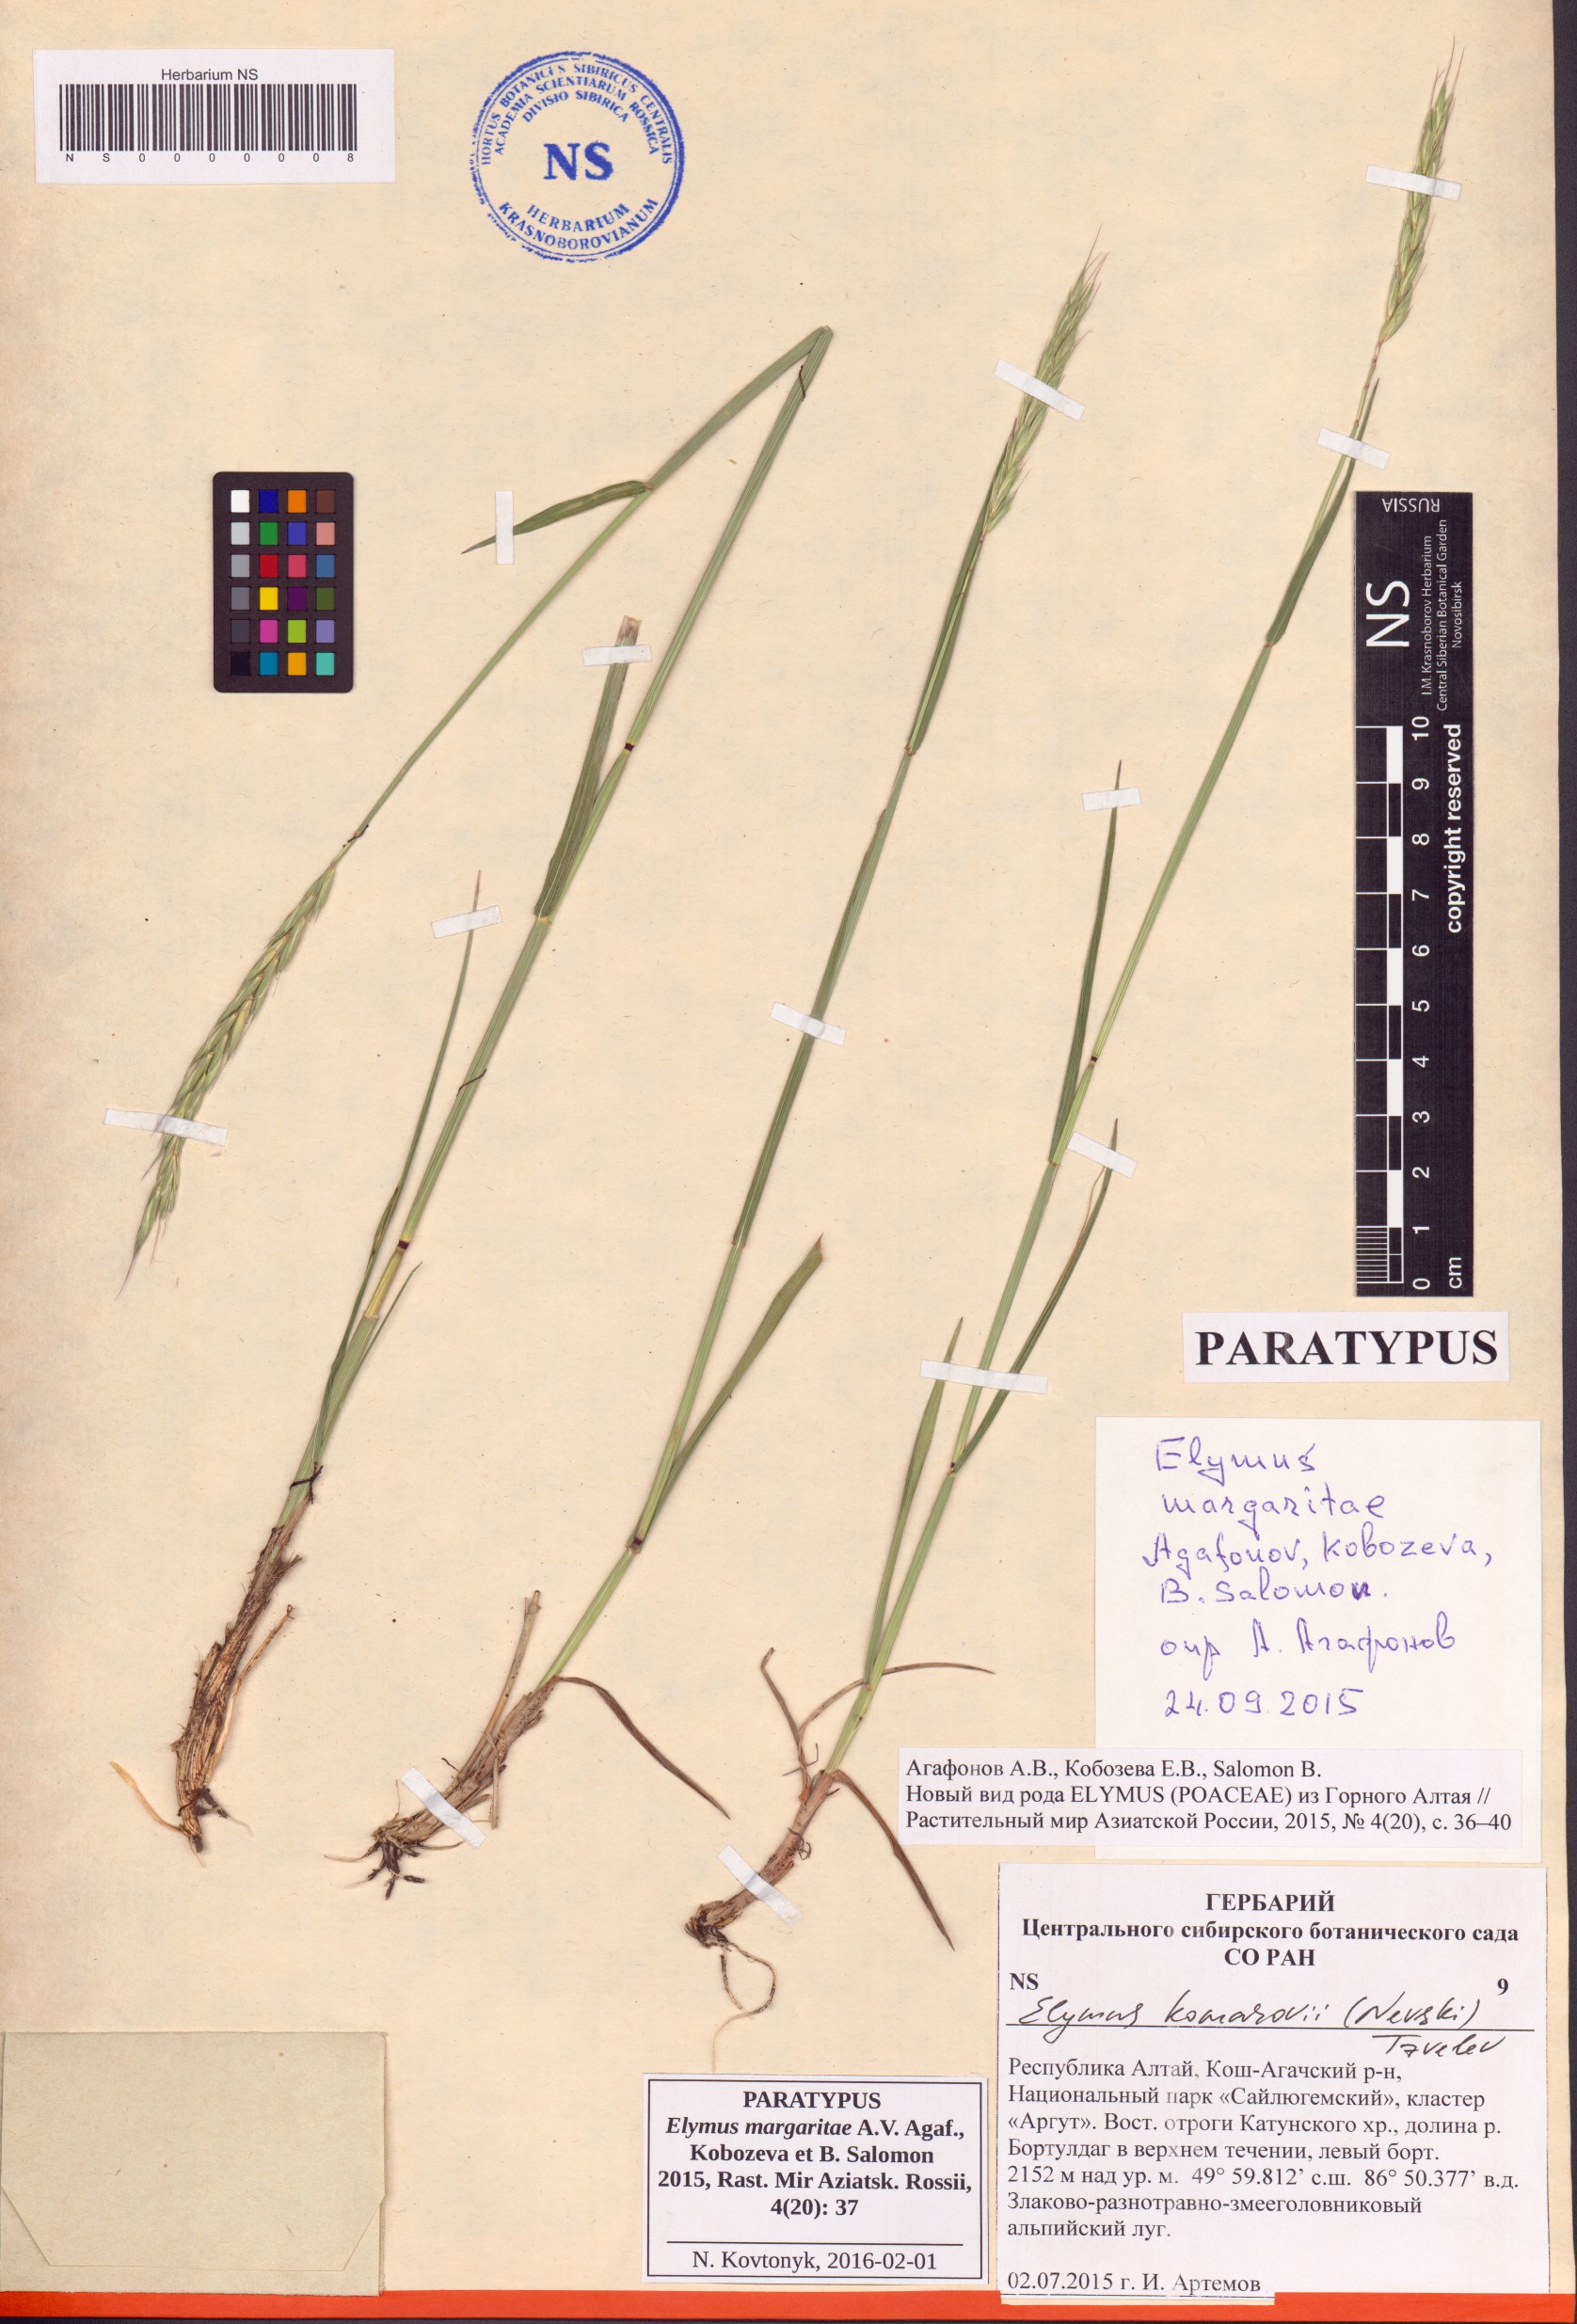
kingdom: Plantae
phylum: Tracheophyta
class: Liliopsida
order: Poales
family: Poaceae
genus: Elymus
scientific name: Elymus margaritae
